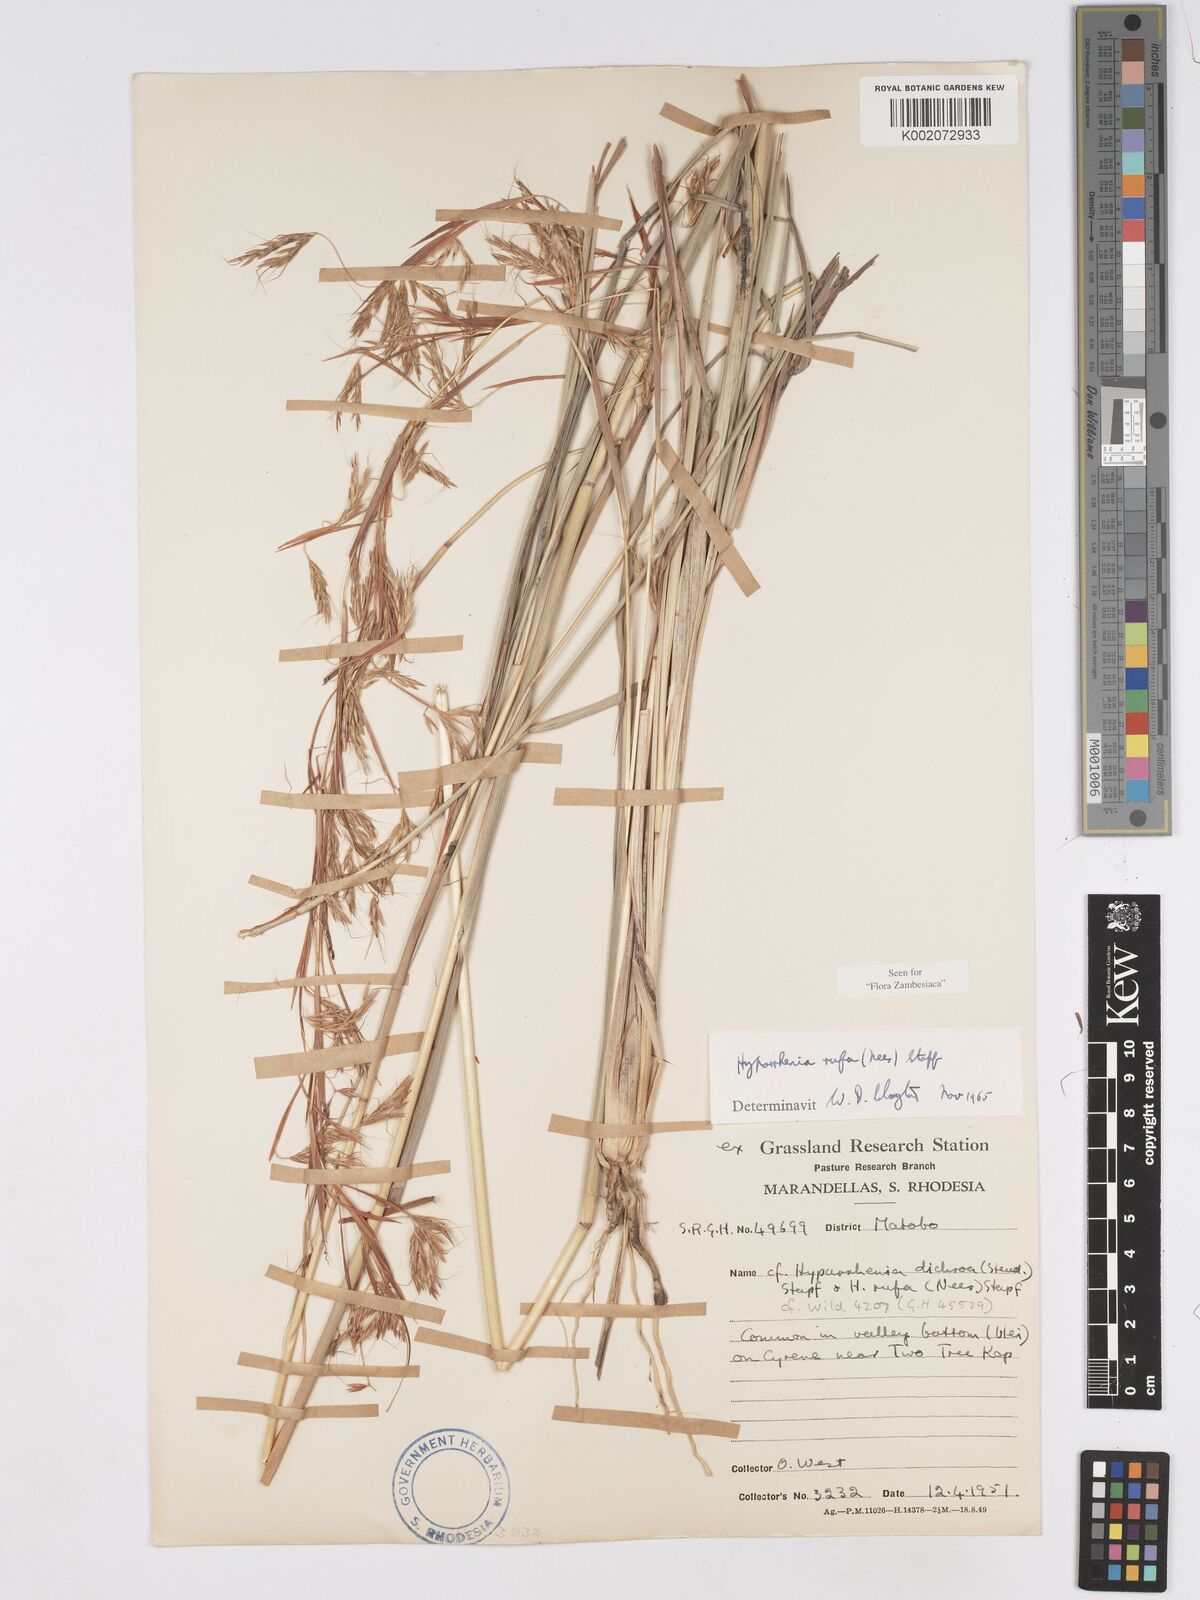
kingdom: Plantae
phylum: Tracheophyta
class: Liliopsida
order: Poales
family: Poaceae
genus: Hyparrhenia
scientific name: Hyparrhenia rufa
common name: Jaraguagrass
